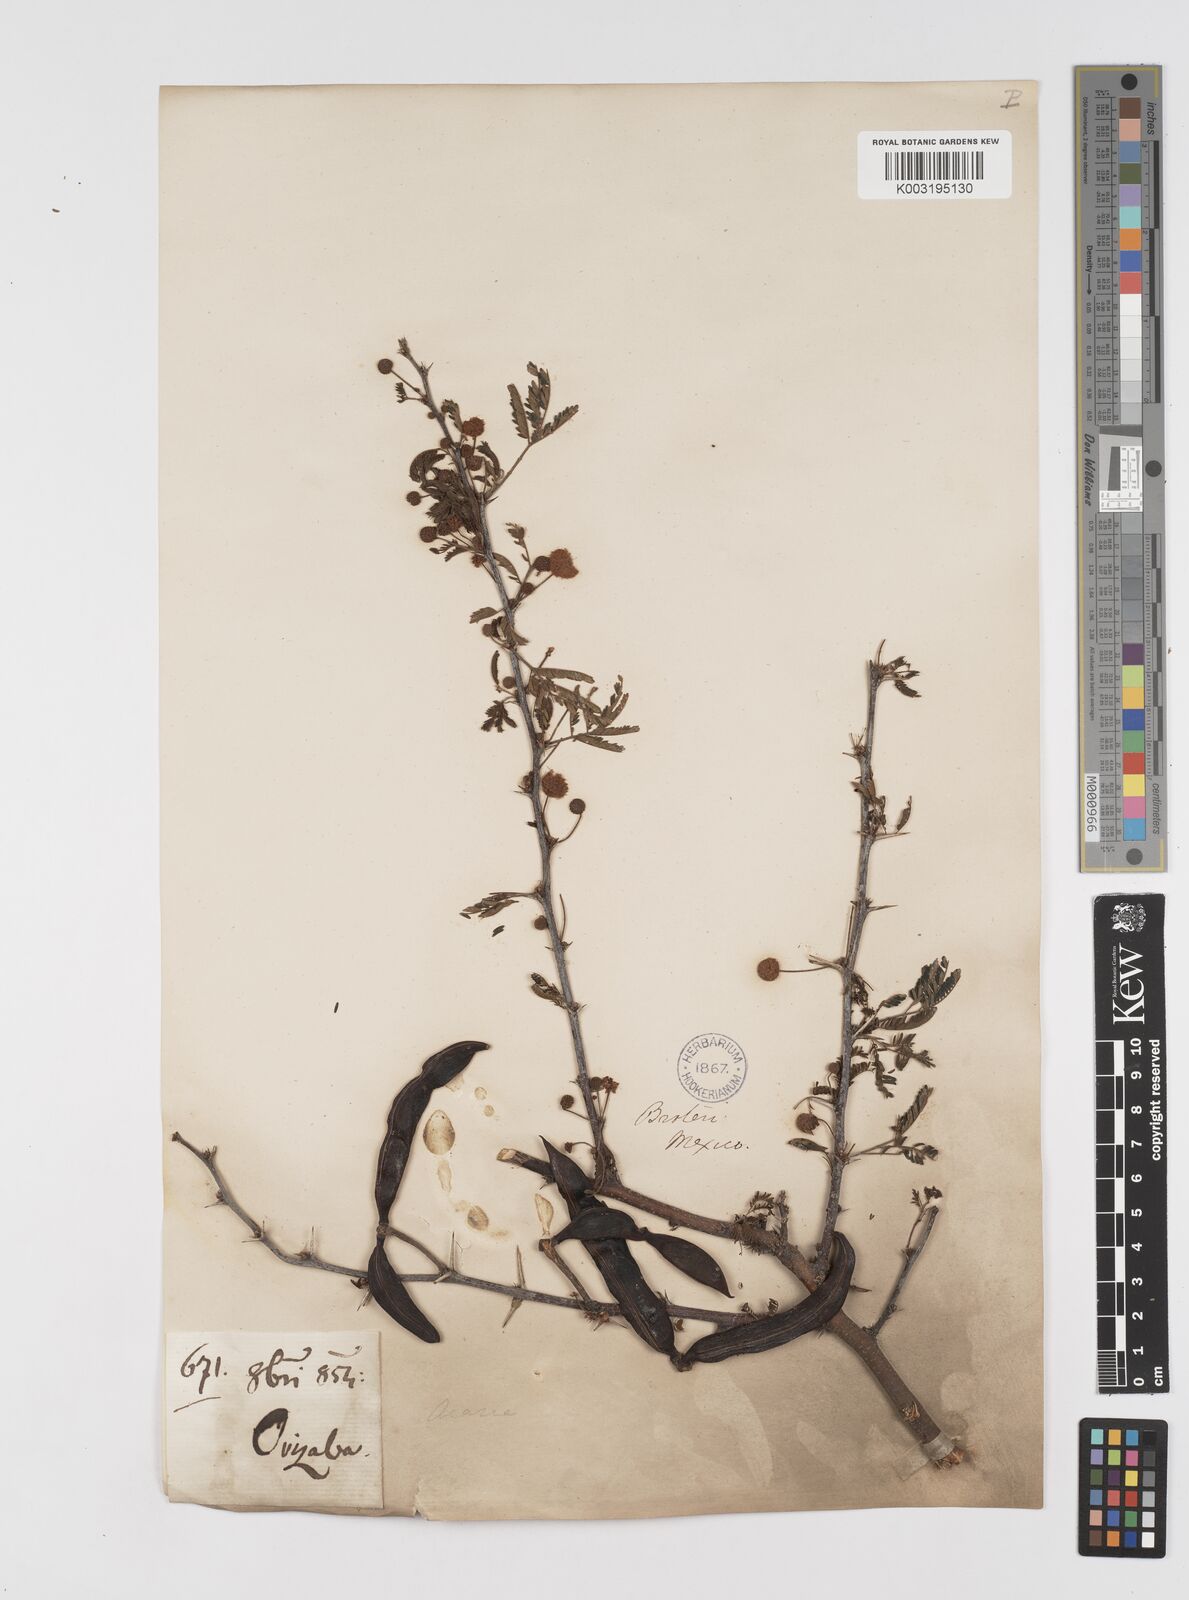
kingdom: Plantae
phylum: Tracheophyta
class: Magnoliopsida
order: Fabales
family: Fabaceae
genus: Vachellia
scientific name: Vachellia farnesiana
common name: Sweet acacia
